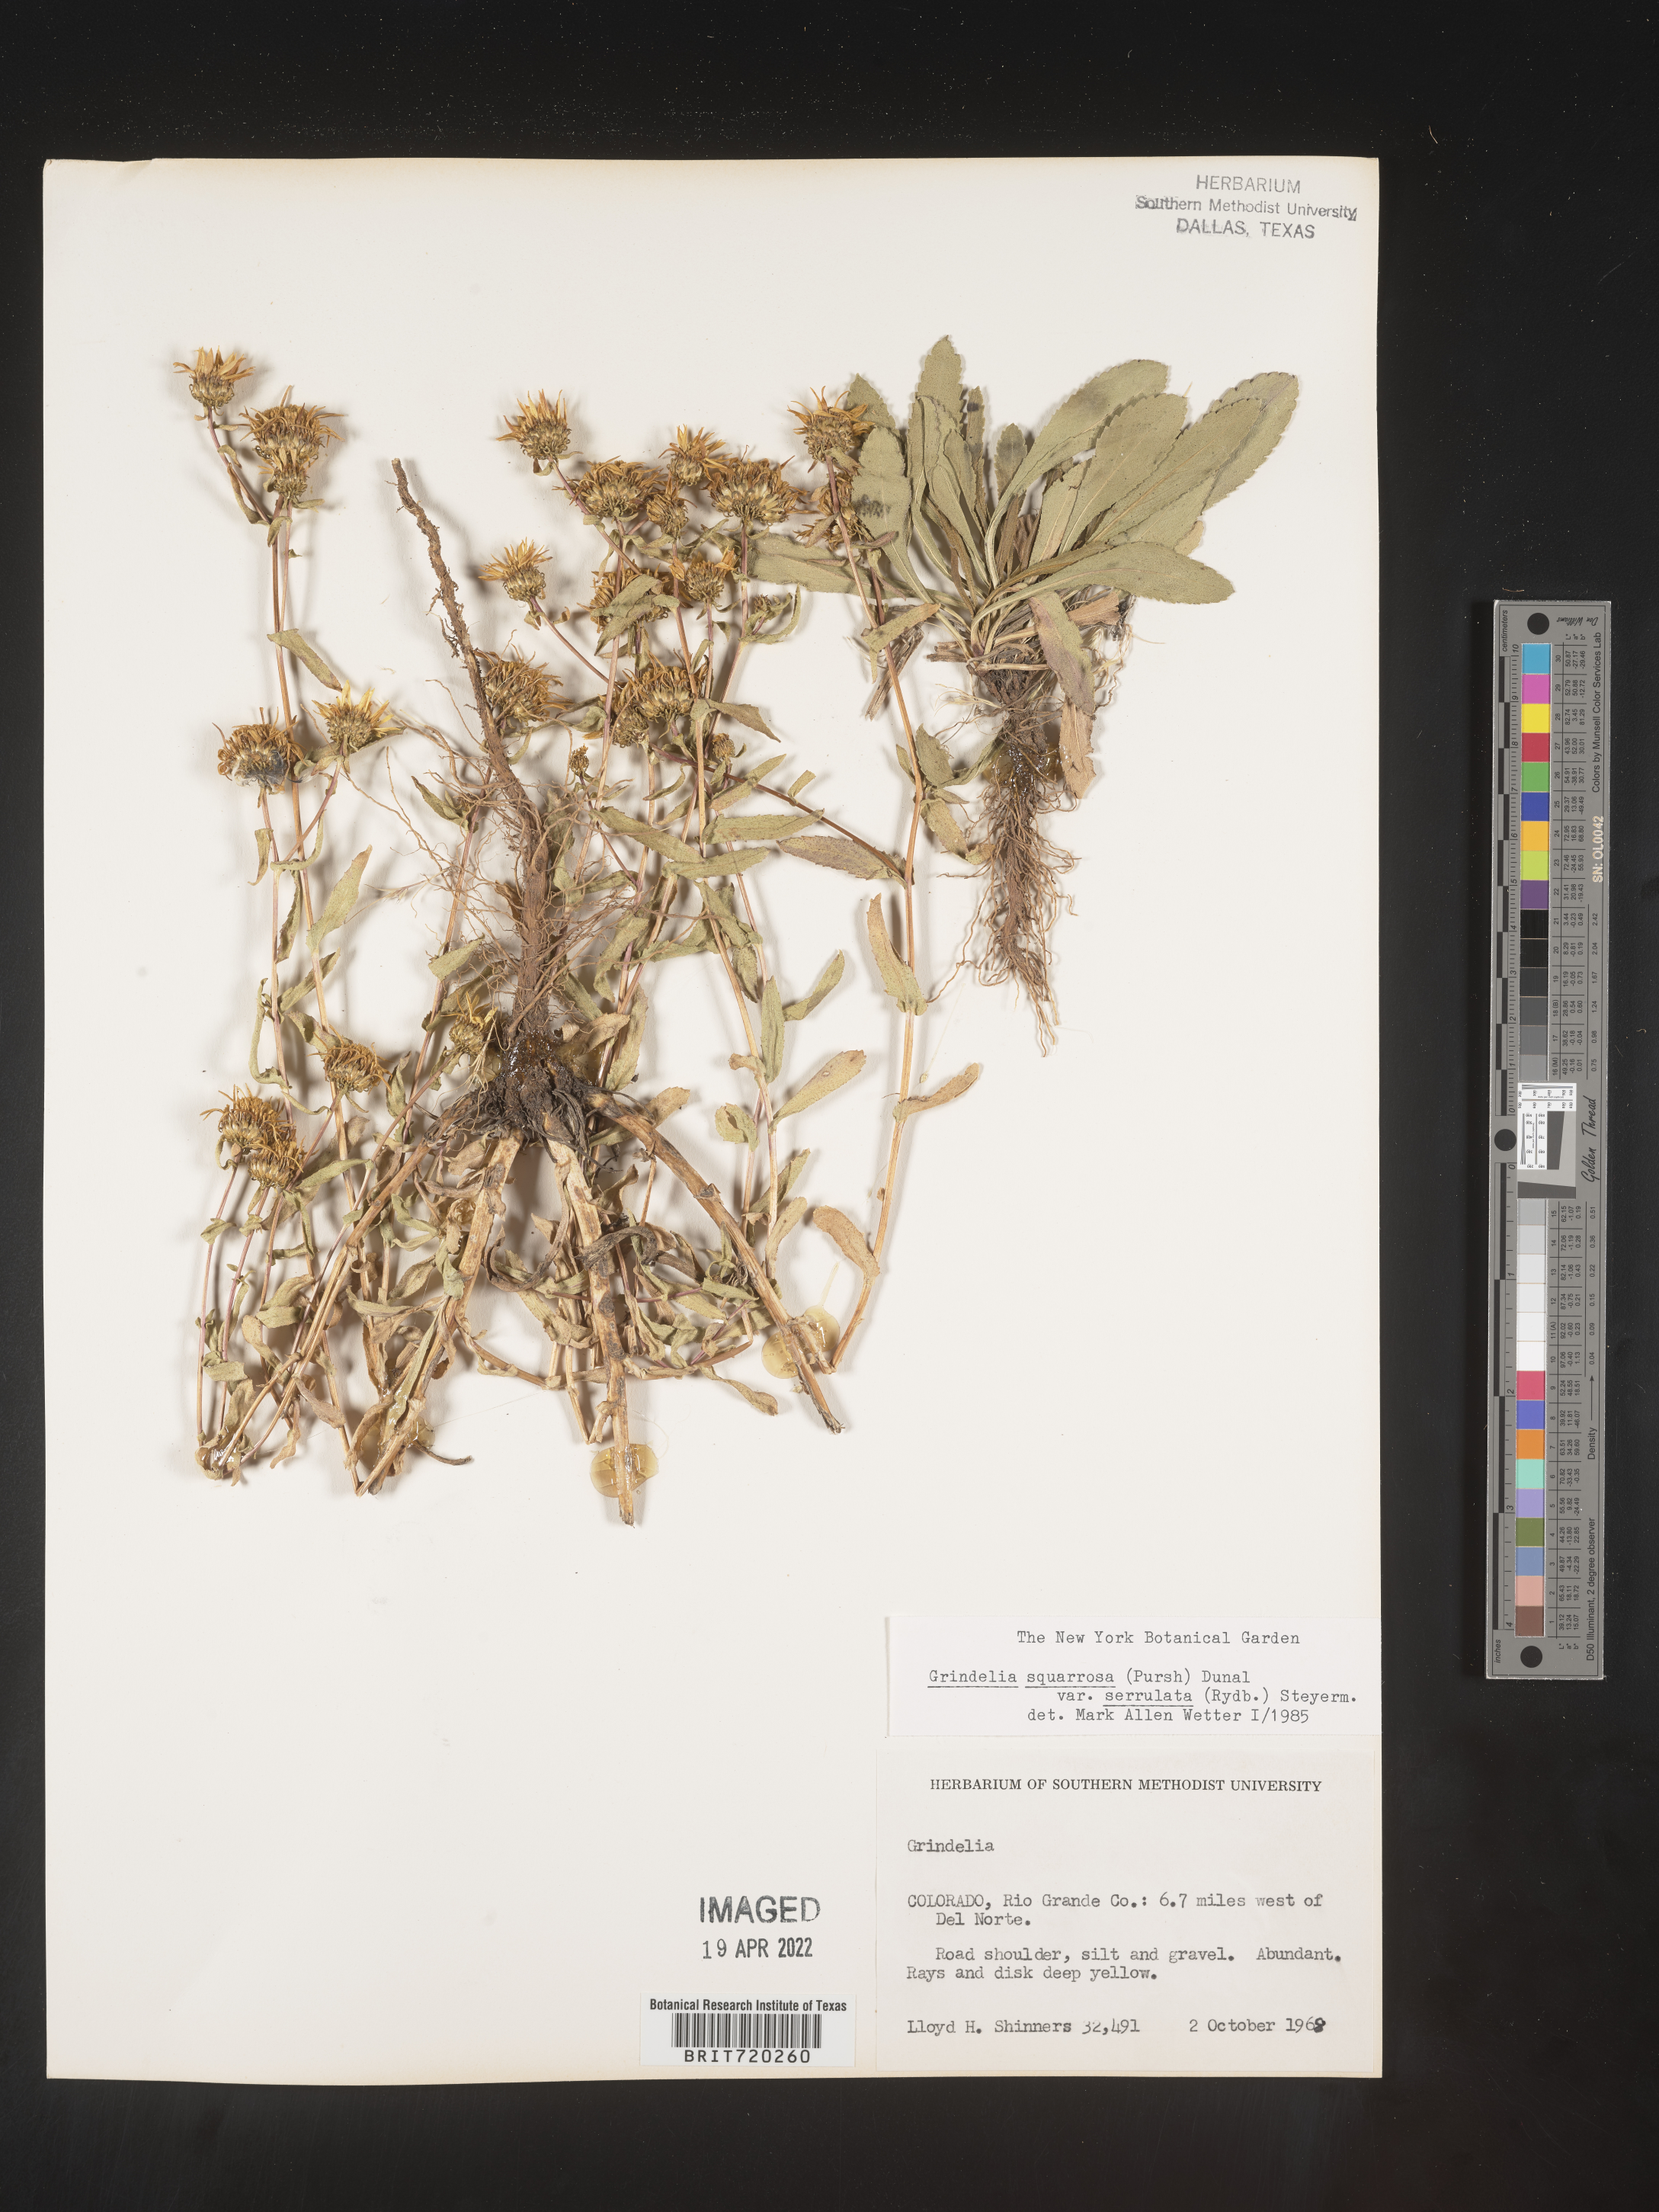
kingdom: Plantae
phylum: Tracheophyta
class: Magnoliopsida
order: Asterales
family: Asteraceae
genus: Grindelia
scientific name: Grindelia squarrosa
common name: Curly-cup gumweed
